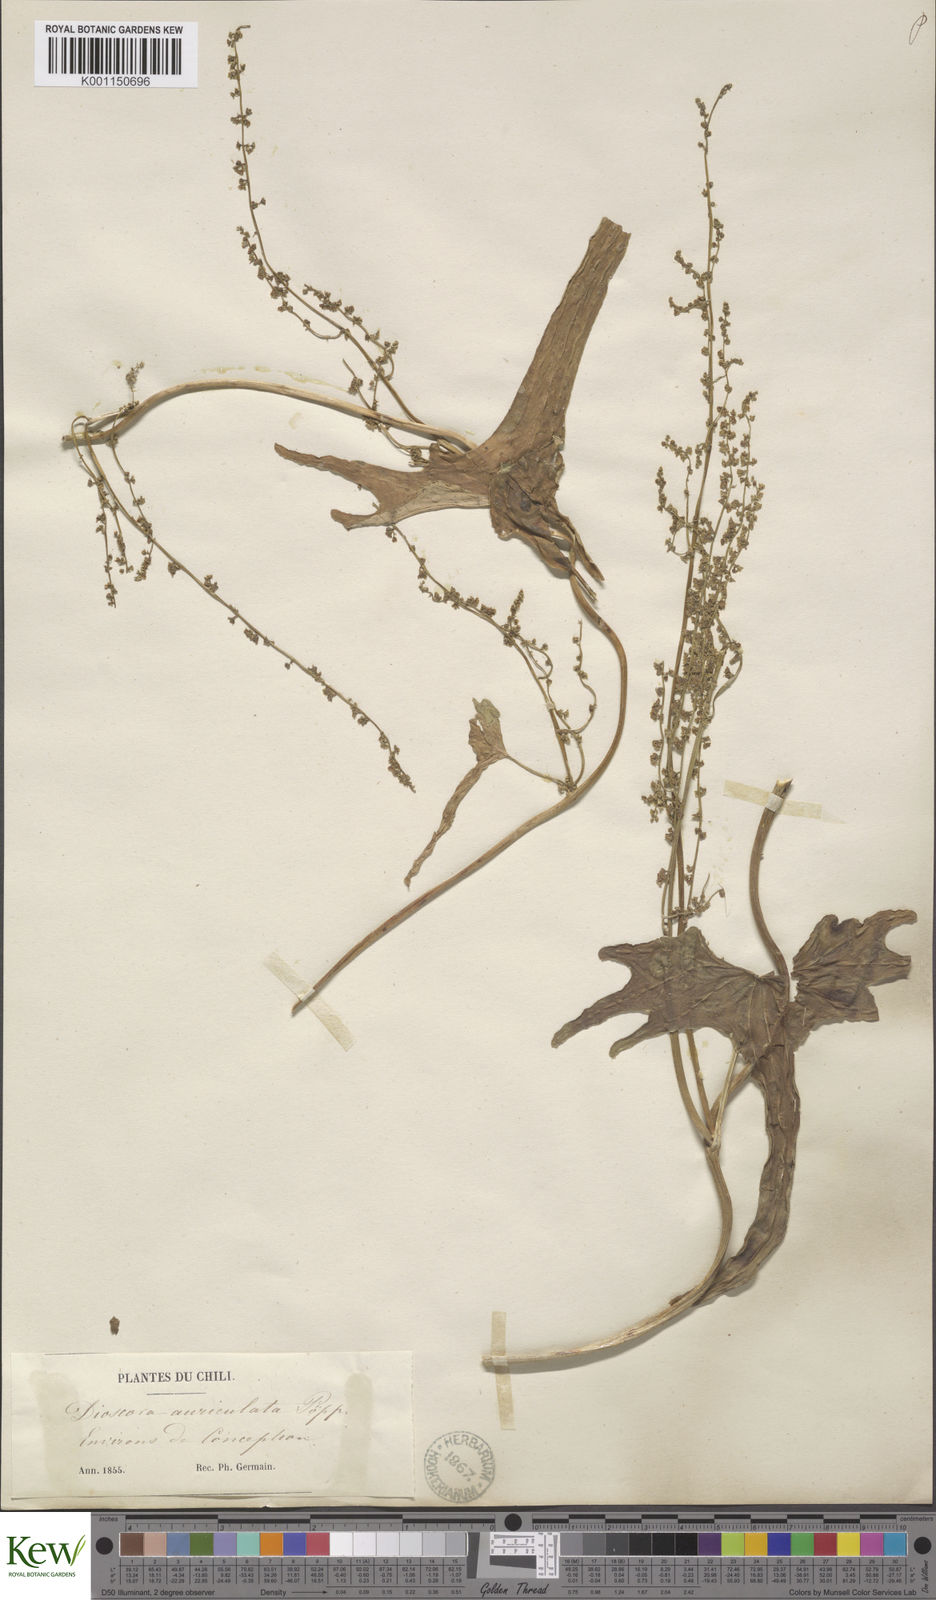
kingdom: Plantae
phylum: Tracheophyta
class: Liliopsida
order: Dioscoreales
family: Dioscoreaceae
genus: Dioscorea
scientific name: Dioscorea auriculata
